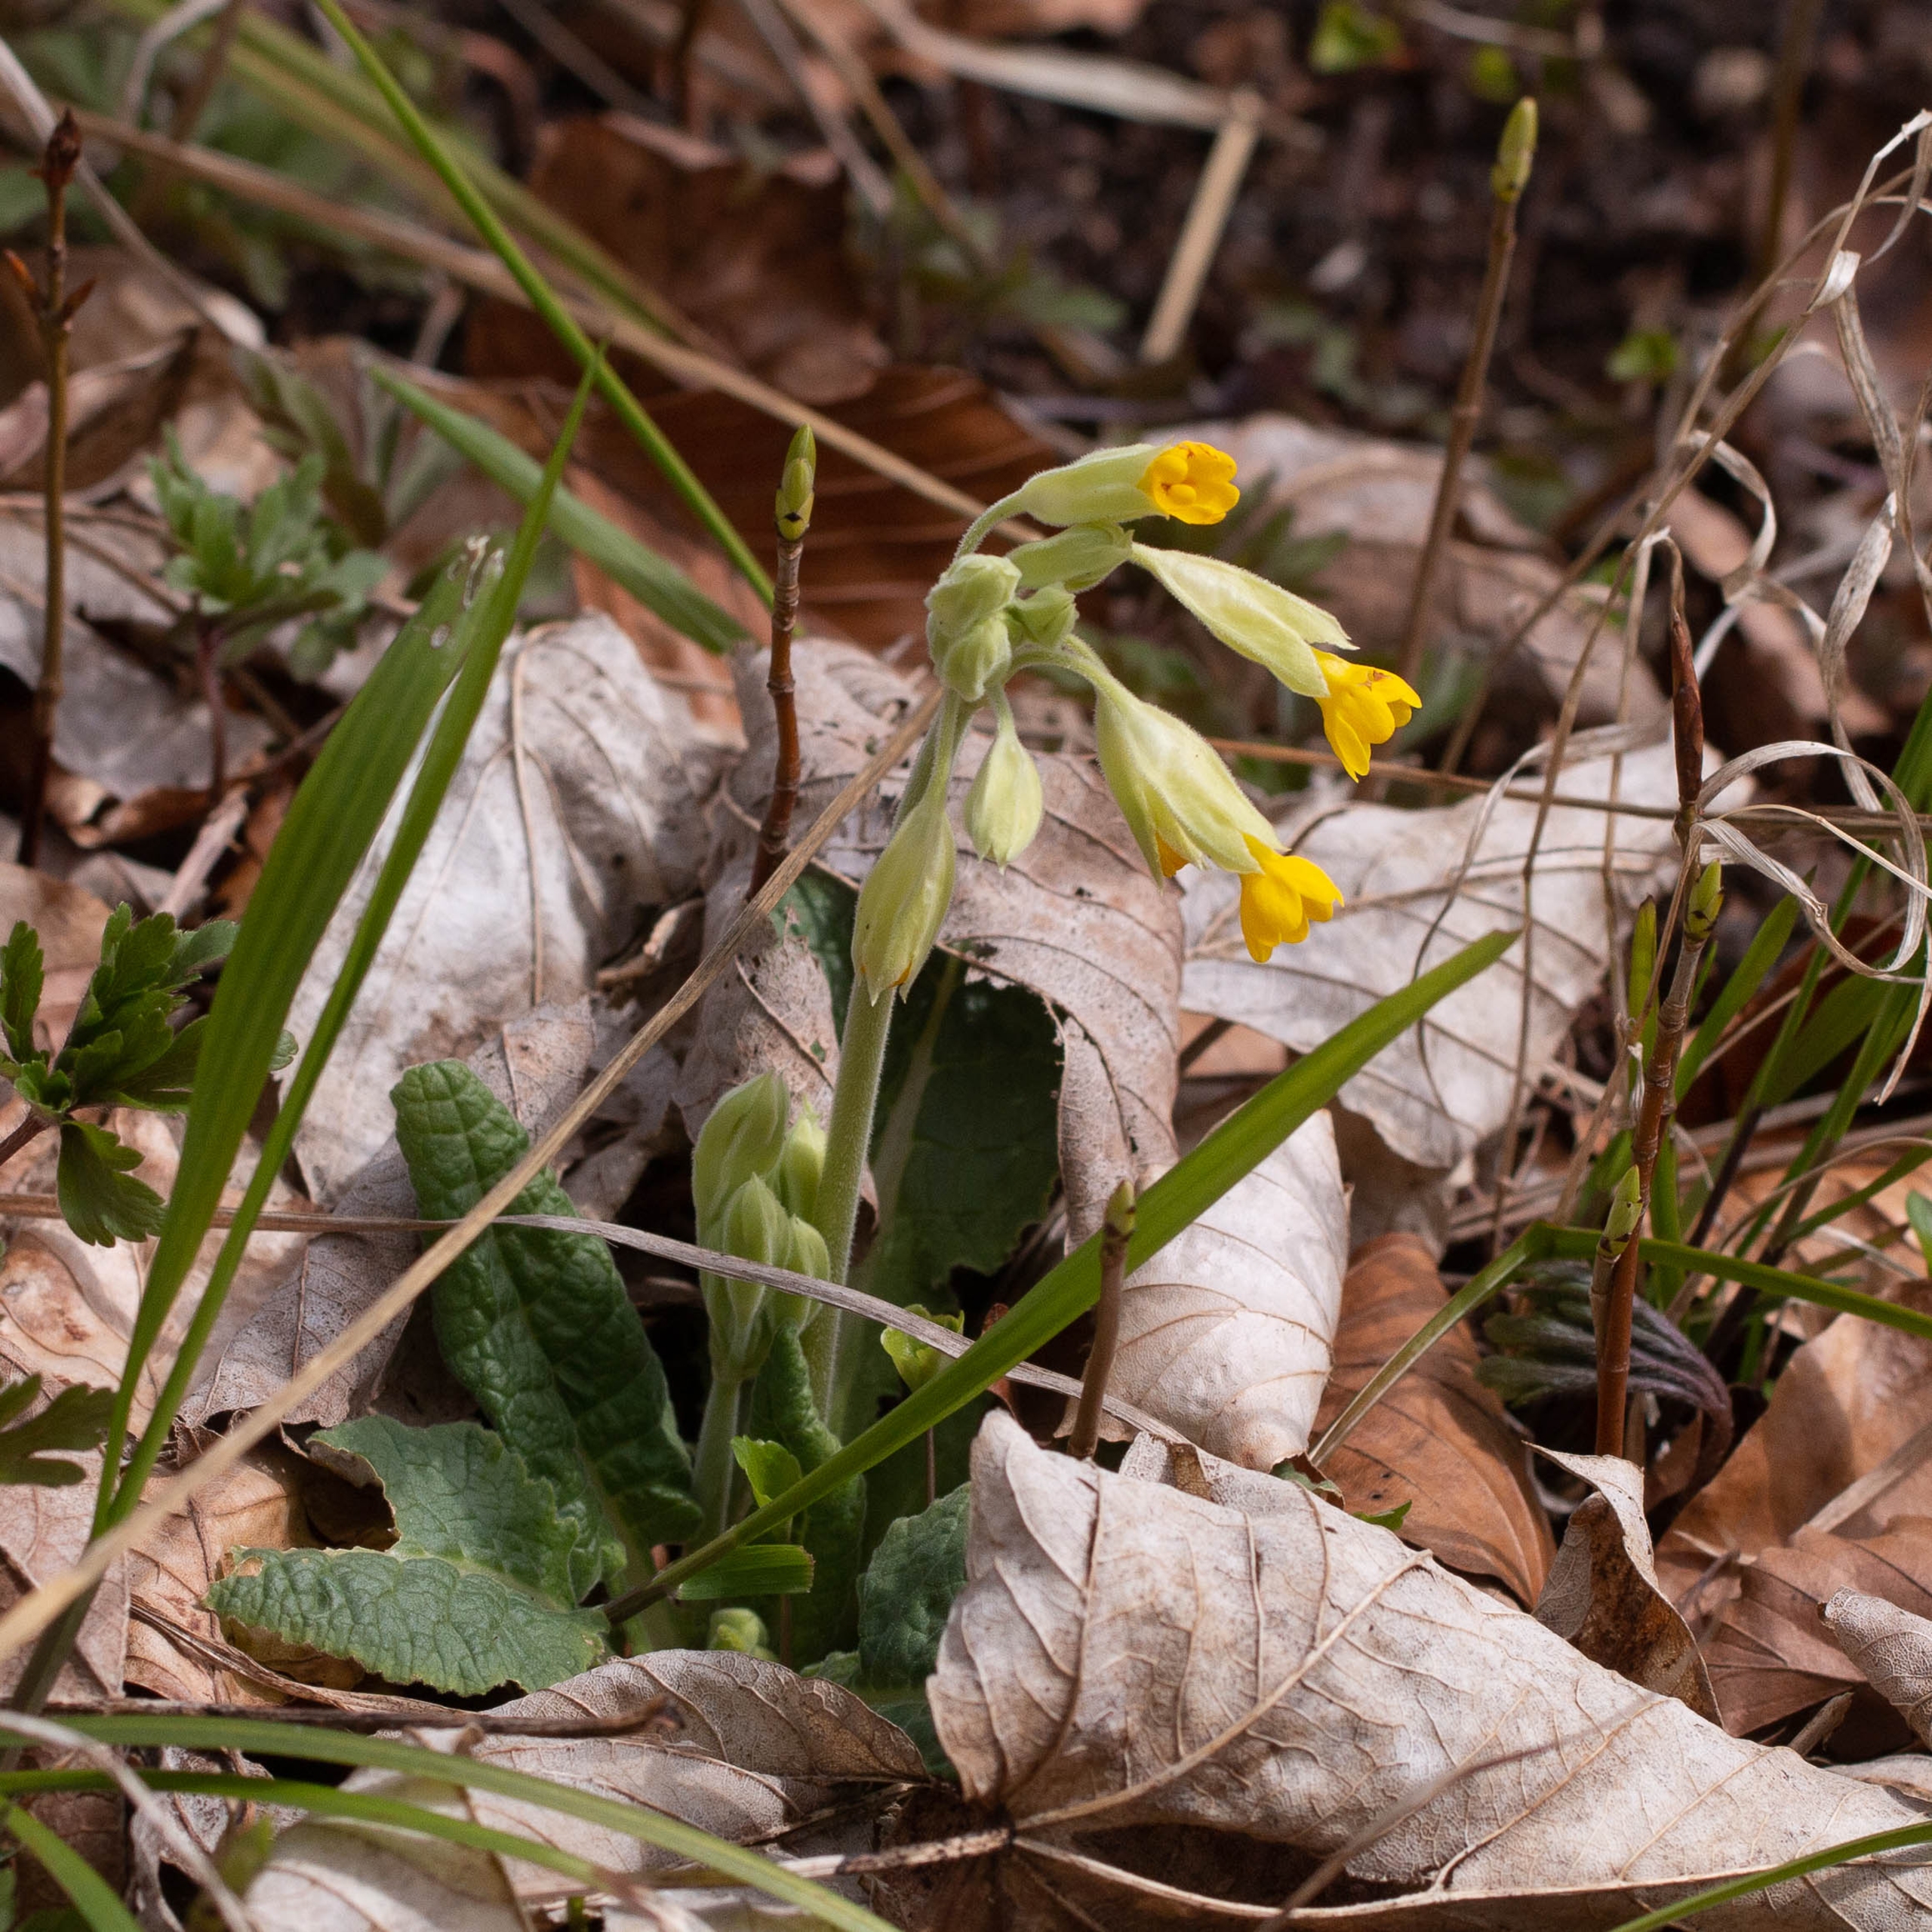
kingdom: Plantae
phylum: Tracheophyta
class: Magnoliopsida
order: Ericales
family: Primulaceae
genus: Primula
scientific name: Primula veris
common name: Hulkravet kodriver
